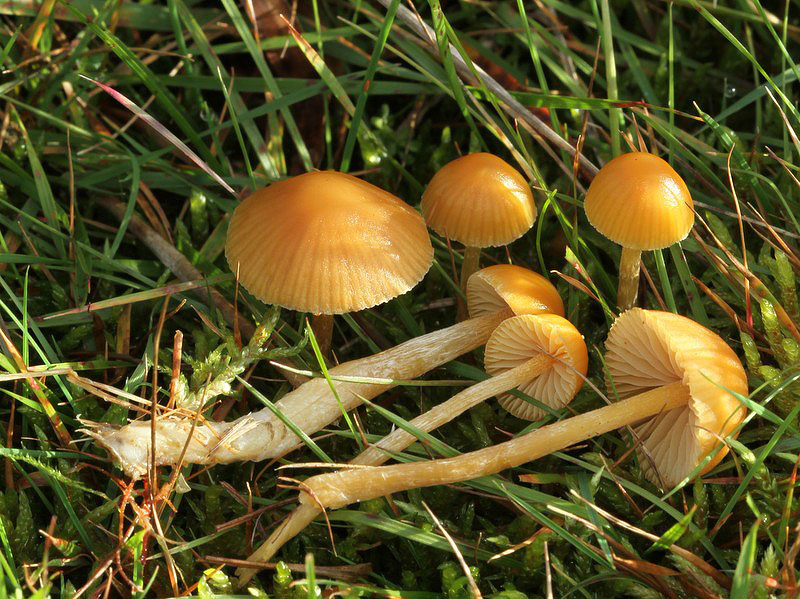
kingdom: Fungi
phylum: Basidiomycota
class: Agaricomycetes
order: Agaricales
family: Hymenogastraceae
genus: Galerina
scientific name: Galerina pumila
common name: honninggul hjelmhat
